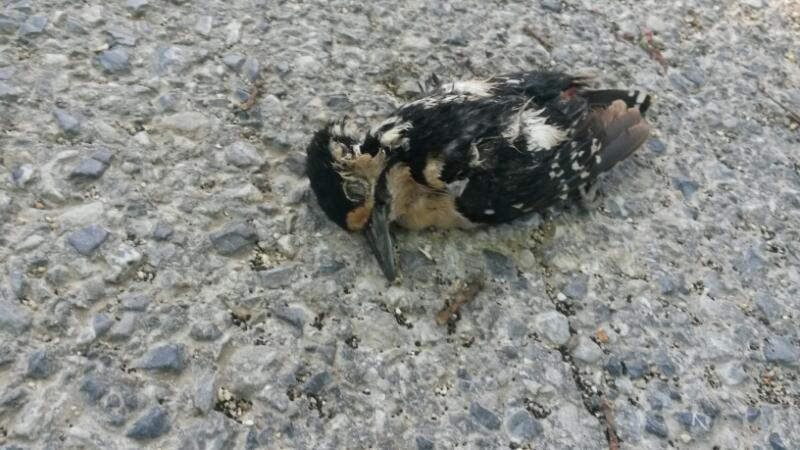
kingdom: Animalia
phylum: Chordata
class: Aves
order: Piciformes
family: Picidae
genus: Dendrocopos
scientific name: Dendrocopos major
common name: Great spotted woodpecker
